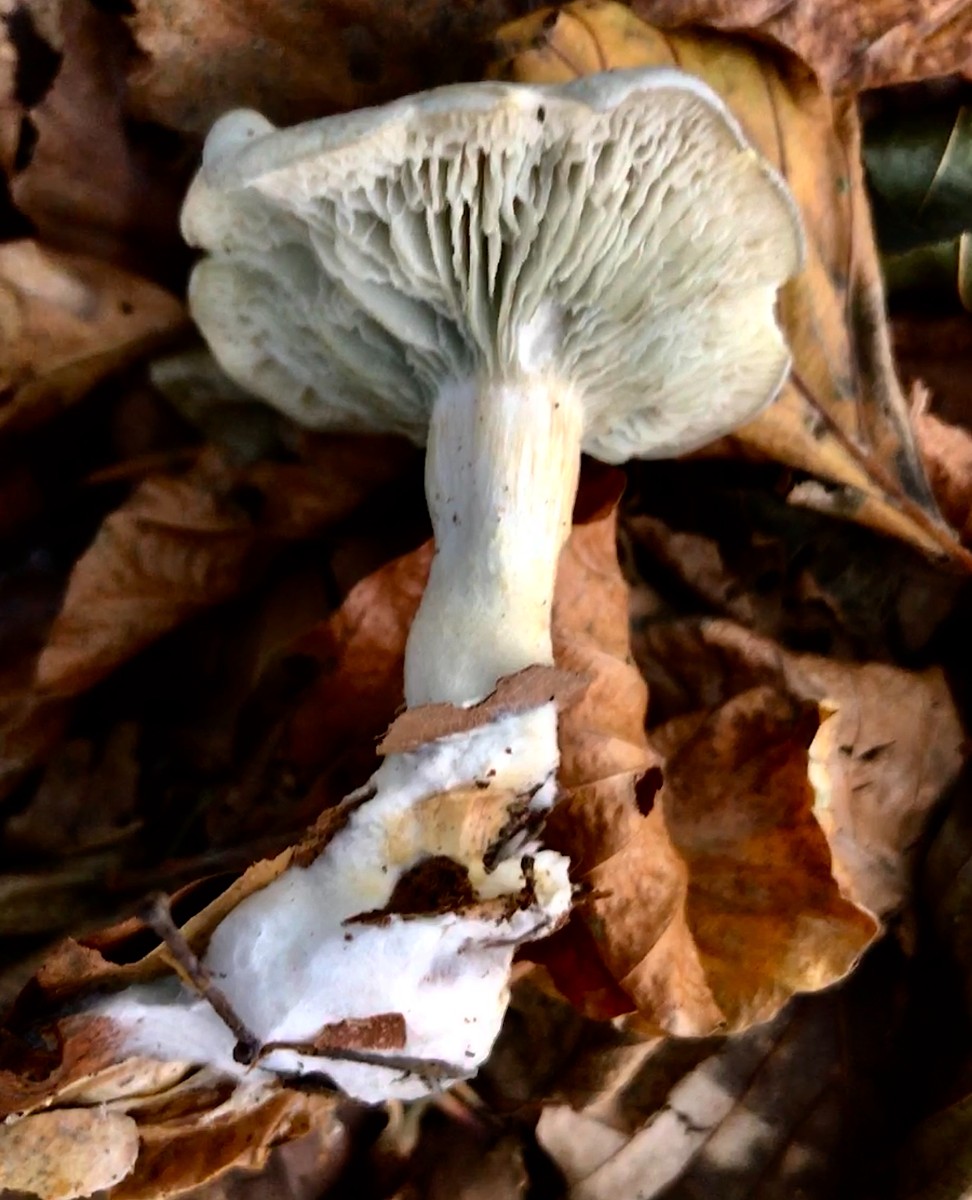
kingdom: Fungi
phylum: Basidiomycota
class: Agaricomycetes
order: Agaricales
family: Tricholomataceae
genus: Clitocybe
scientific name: Clitocybe odora
